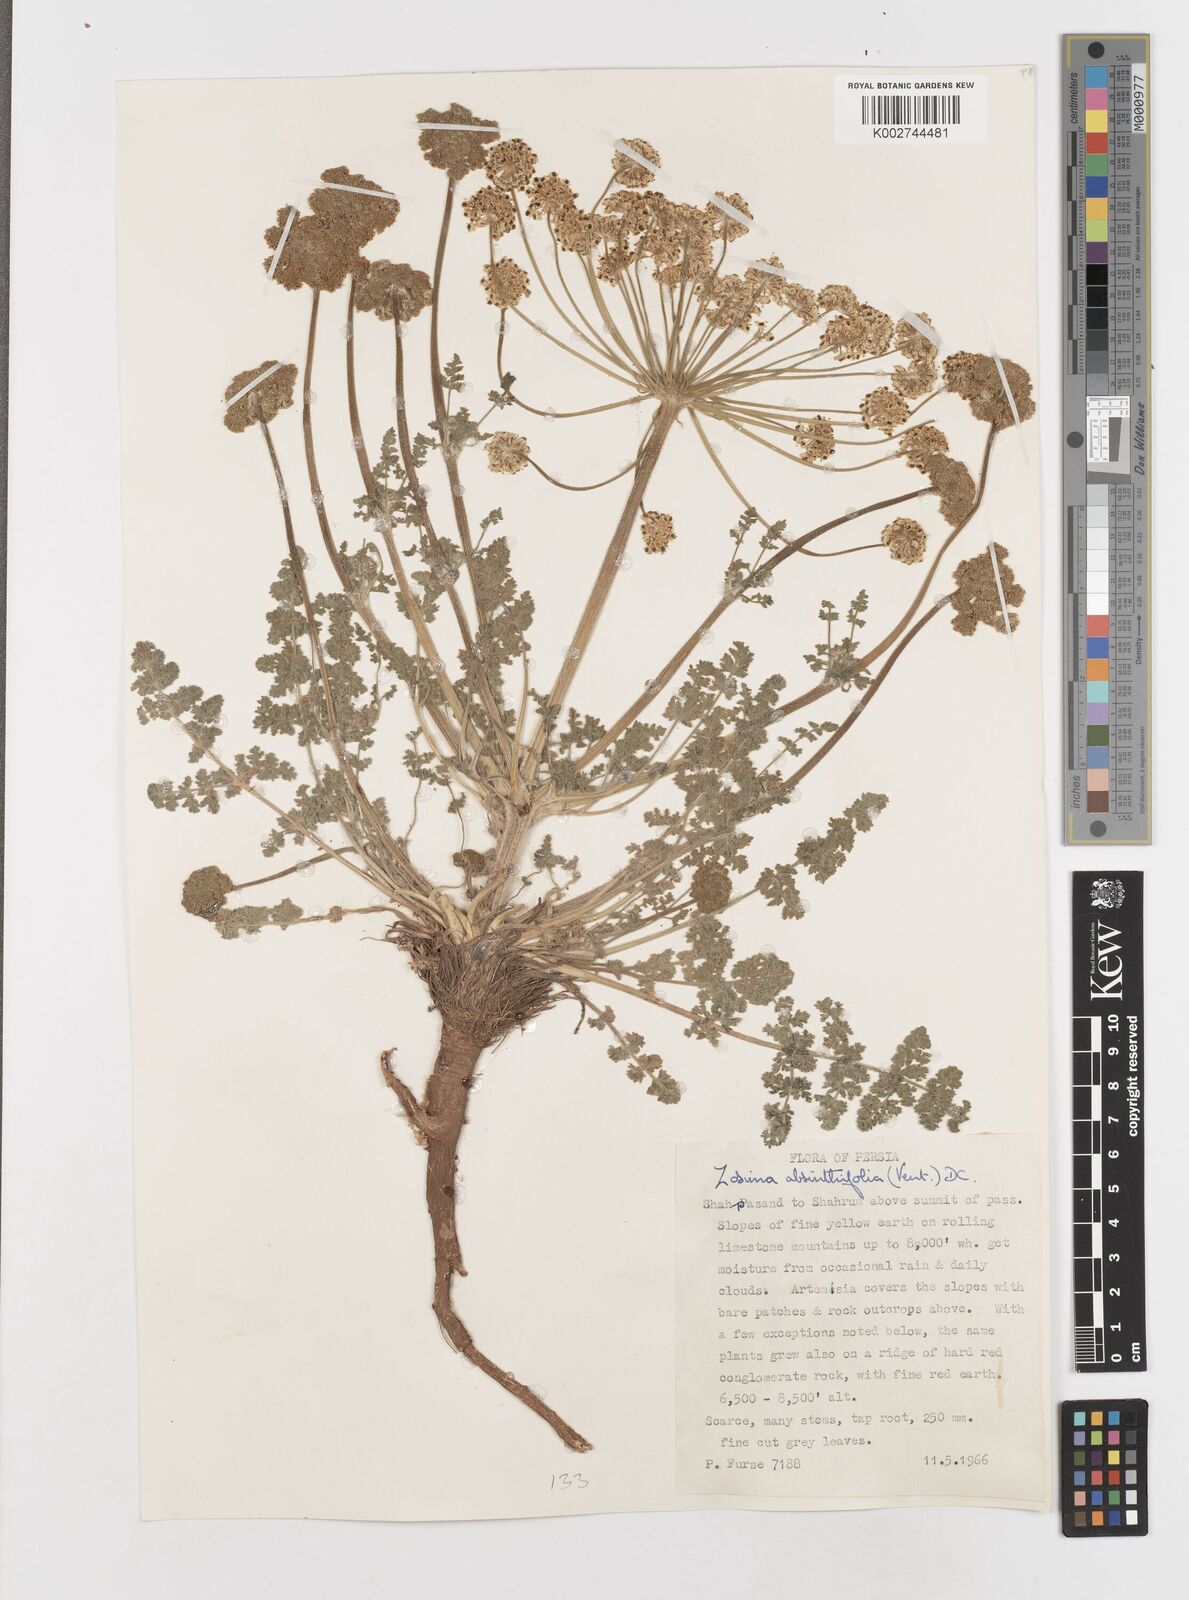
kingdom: Plantae
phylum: Tracheophyta
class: Magnoliopsida
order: Apiales
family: Apiaceae
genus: Zosima
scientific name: Zosima absinthiifolia
